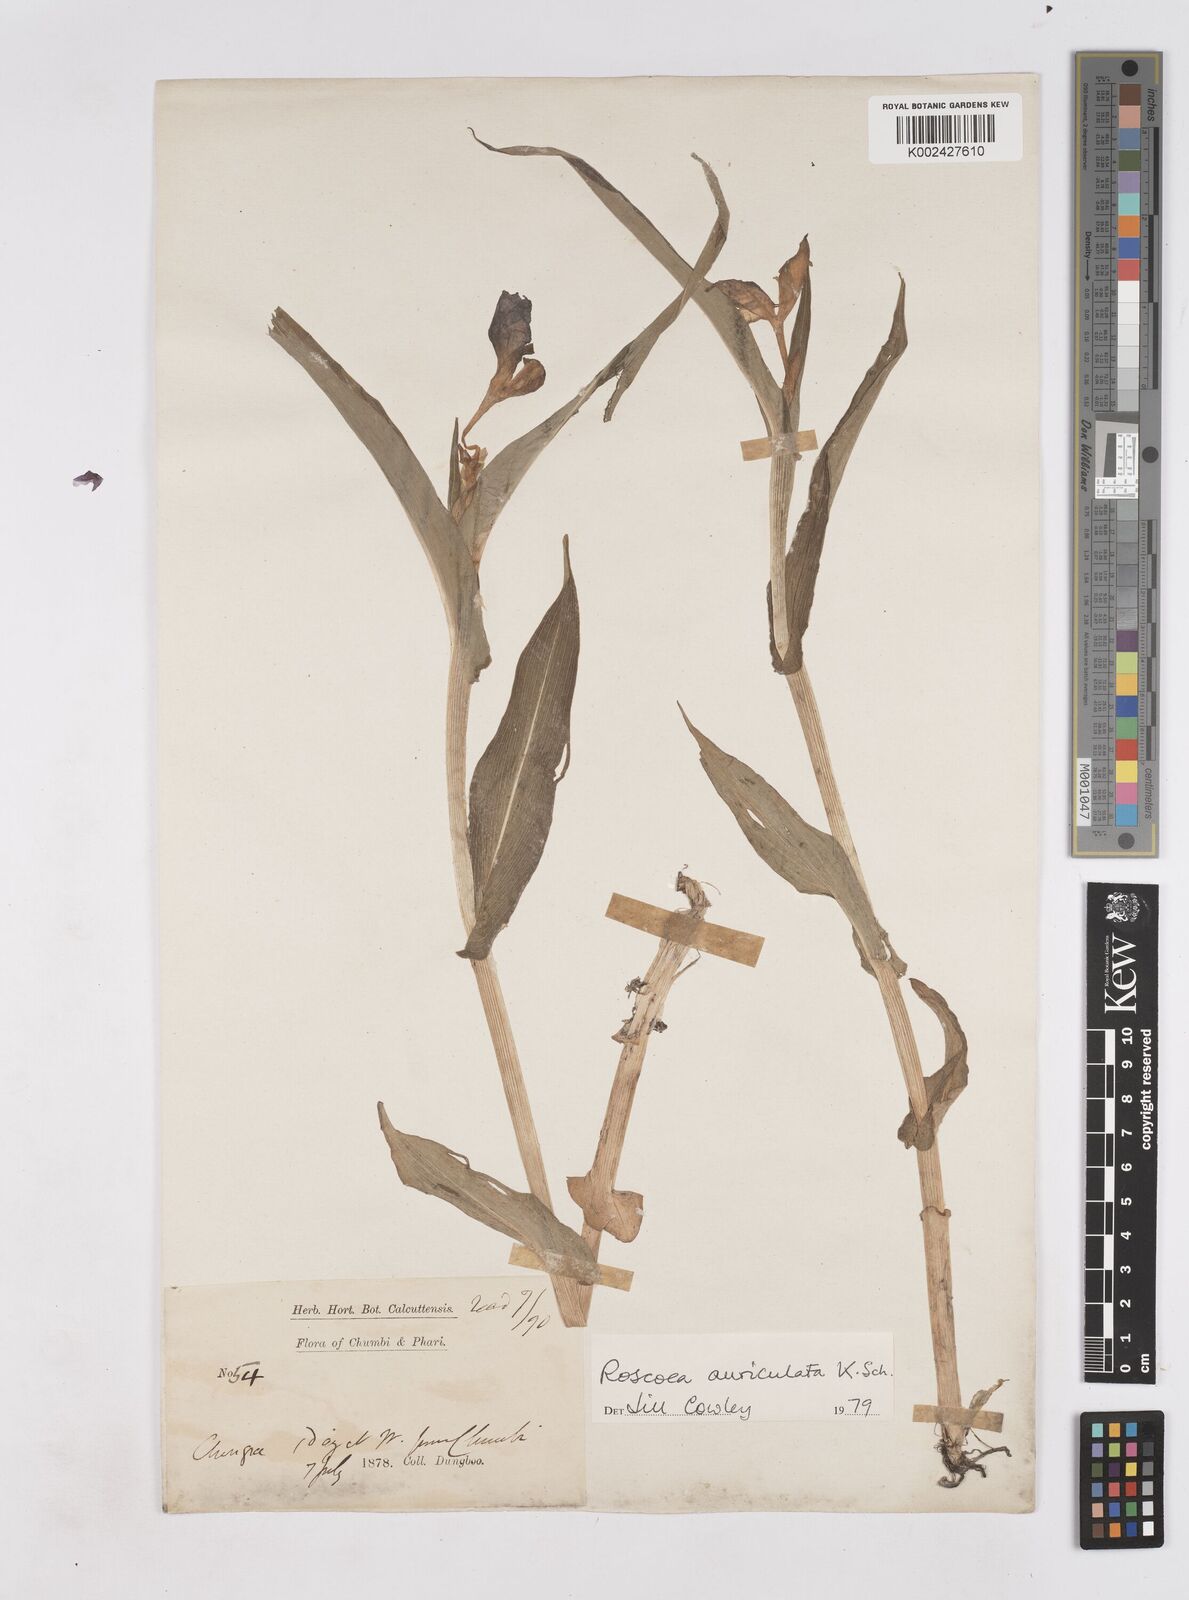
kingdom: Plantae
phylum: Tracheophyta
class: Liliopsida
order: Zingiberales
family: Zingiberaceae
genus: Roscoea
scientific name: Roscoea auriculata
